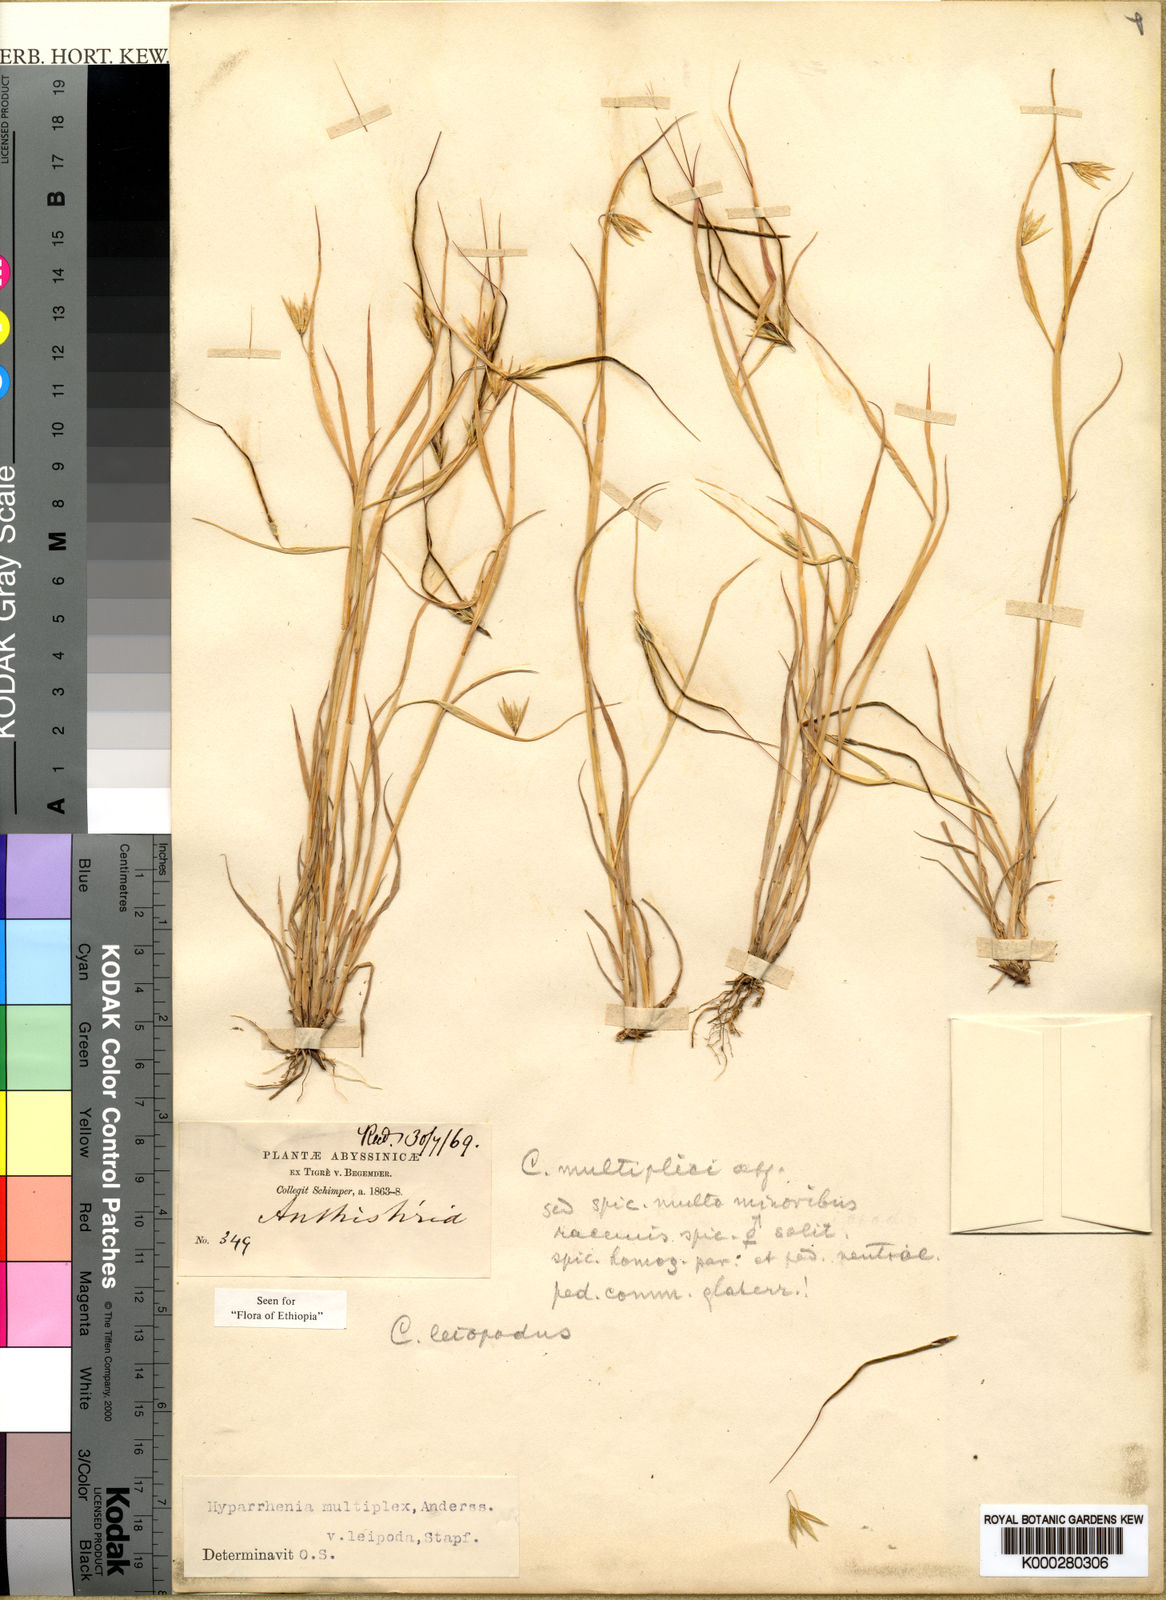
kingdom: Plantae
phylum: Tracheophyta
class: Liliopsida
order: Poales
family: Poaceae
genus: Hyparrhenia
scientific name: Hyparrhenia
